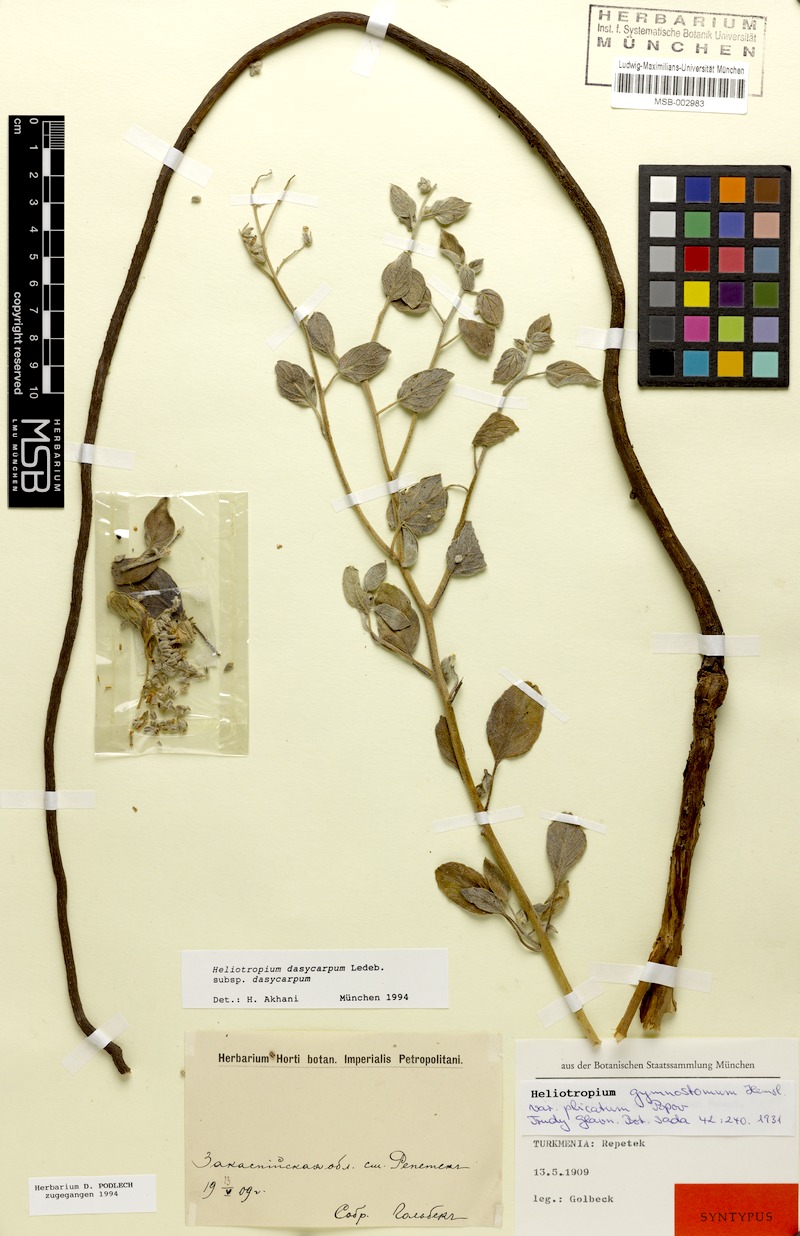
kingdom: Plantae
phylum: Tracheophyta
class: Magnoliopsida
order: Boraginales
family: Heliotropiaceae
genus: Heliotropium
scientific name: Heliotropium dasycarpum
